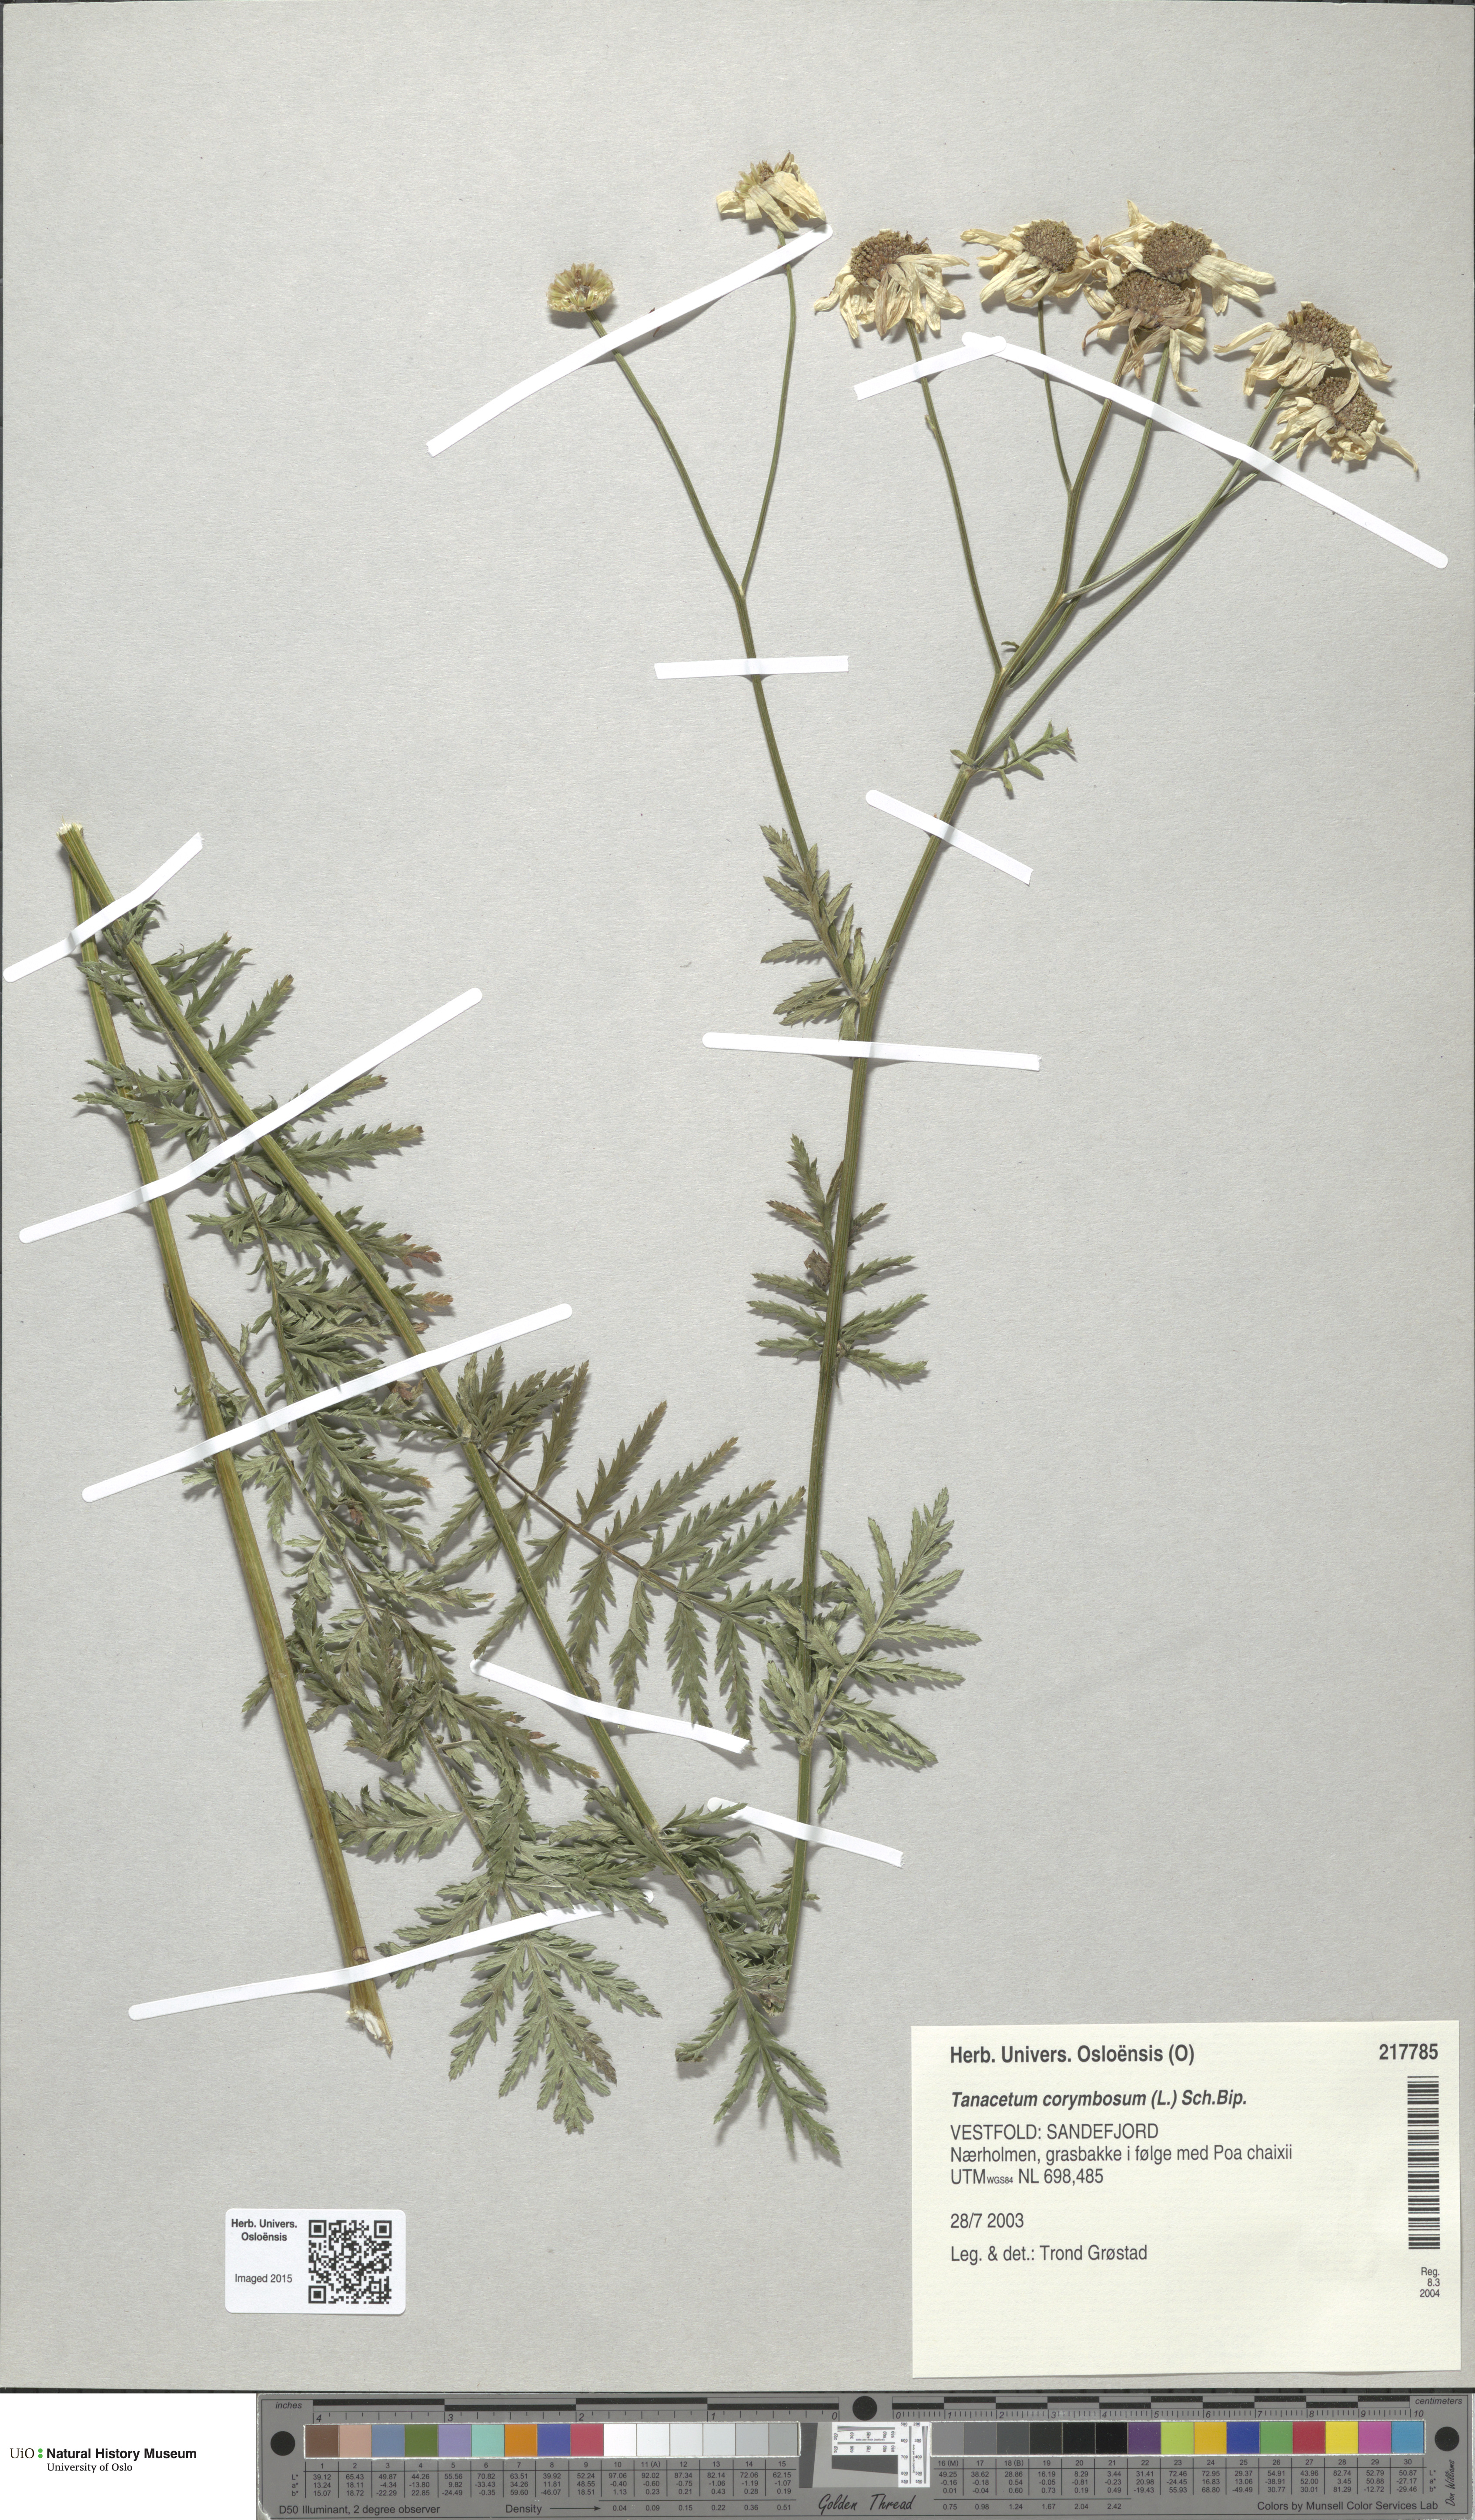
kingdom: Plantae
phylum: Tracheophyta
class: Magnoliopsida
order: Asterales
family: Asteraceae
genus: Tanacetum
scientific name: Tanacetum corymbosum
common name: Scentless feverfew
